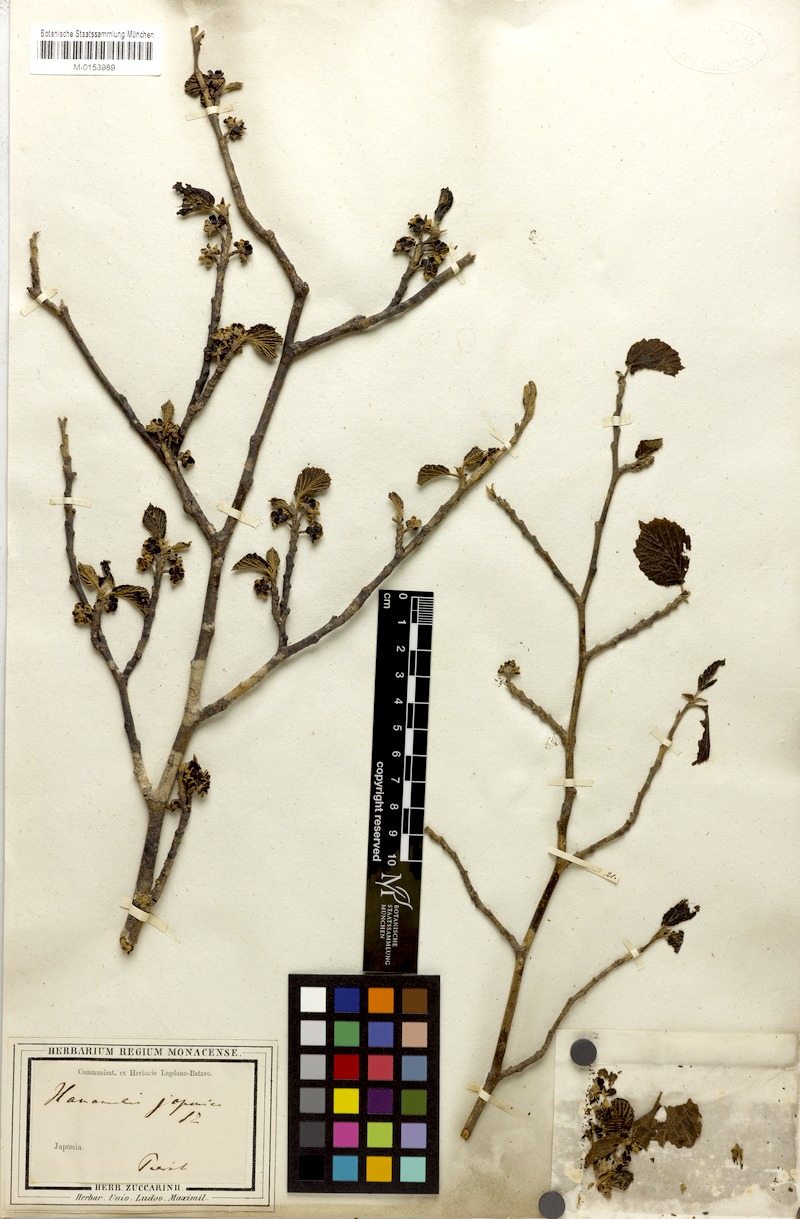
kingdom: Plantae
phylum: Tracheophyta
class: Magnoliopsida
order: Saxifragales
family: Hamamelidaceae
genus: Hamamelis
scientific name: Hamamelis japonica
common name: Japanese witch-hazel
